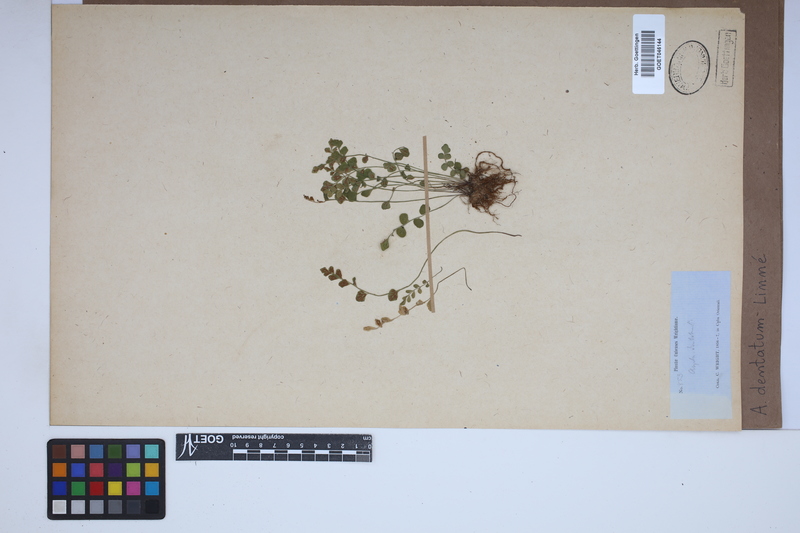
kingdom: Plantae
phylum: Tracheophyta
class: Polypodiopsida
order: Polypodiales
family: Aspleniaceae
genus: Asplenium
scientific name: Asplenium dentatum
